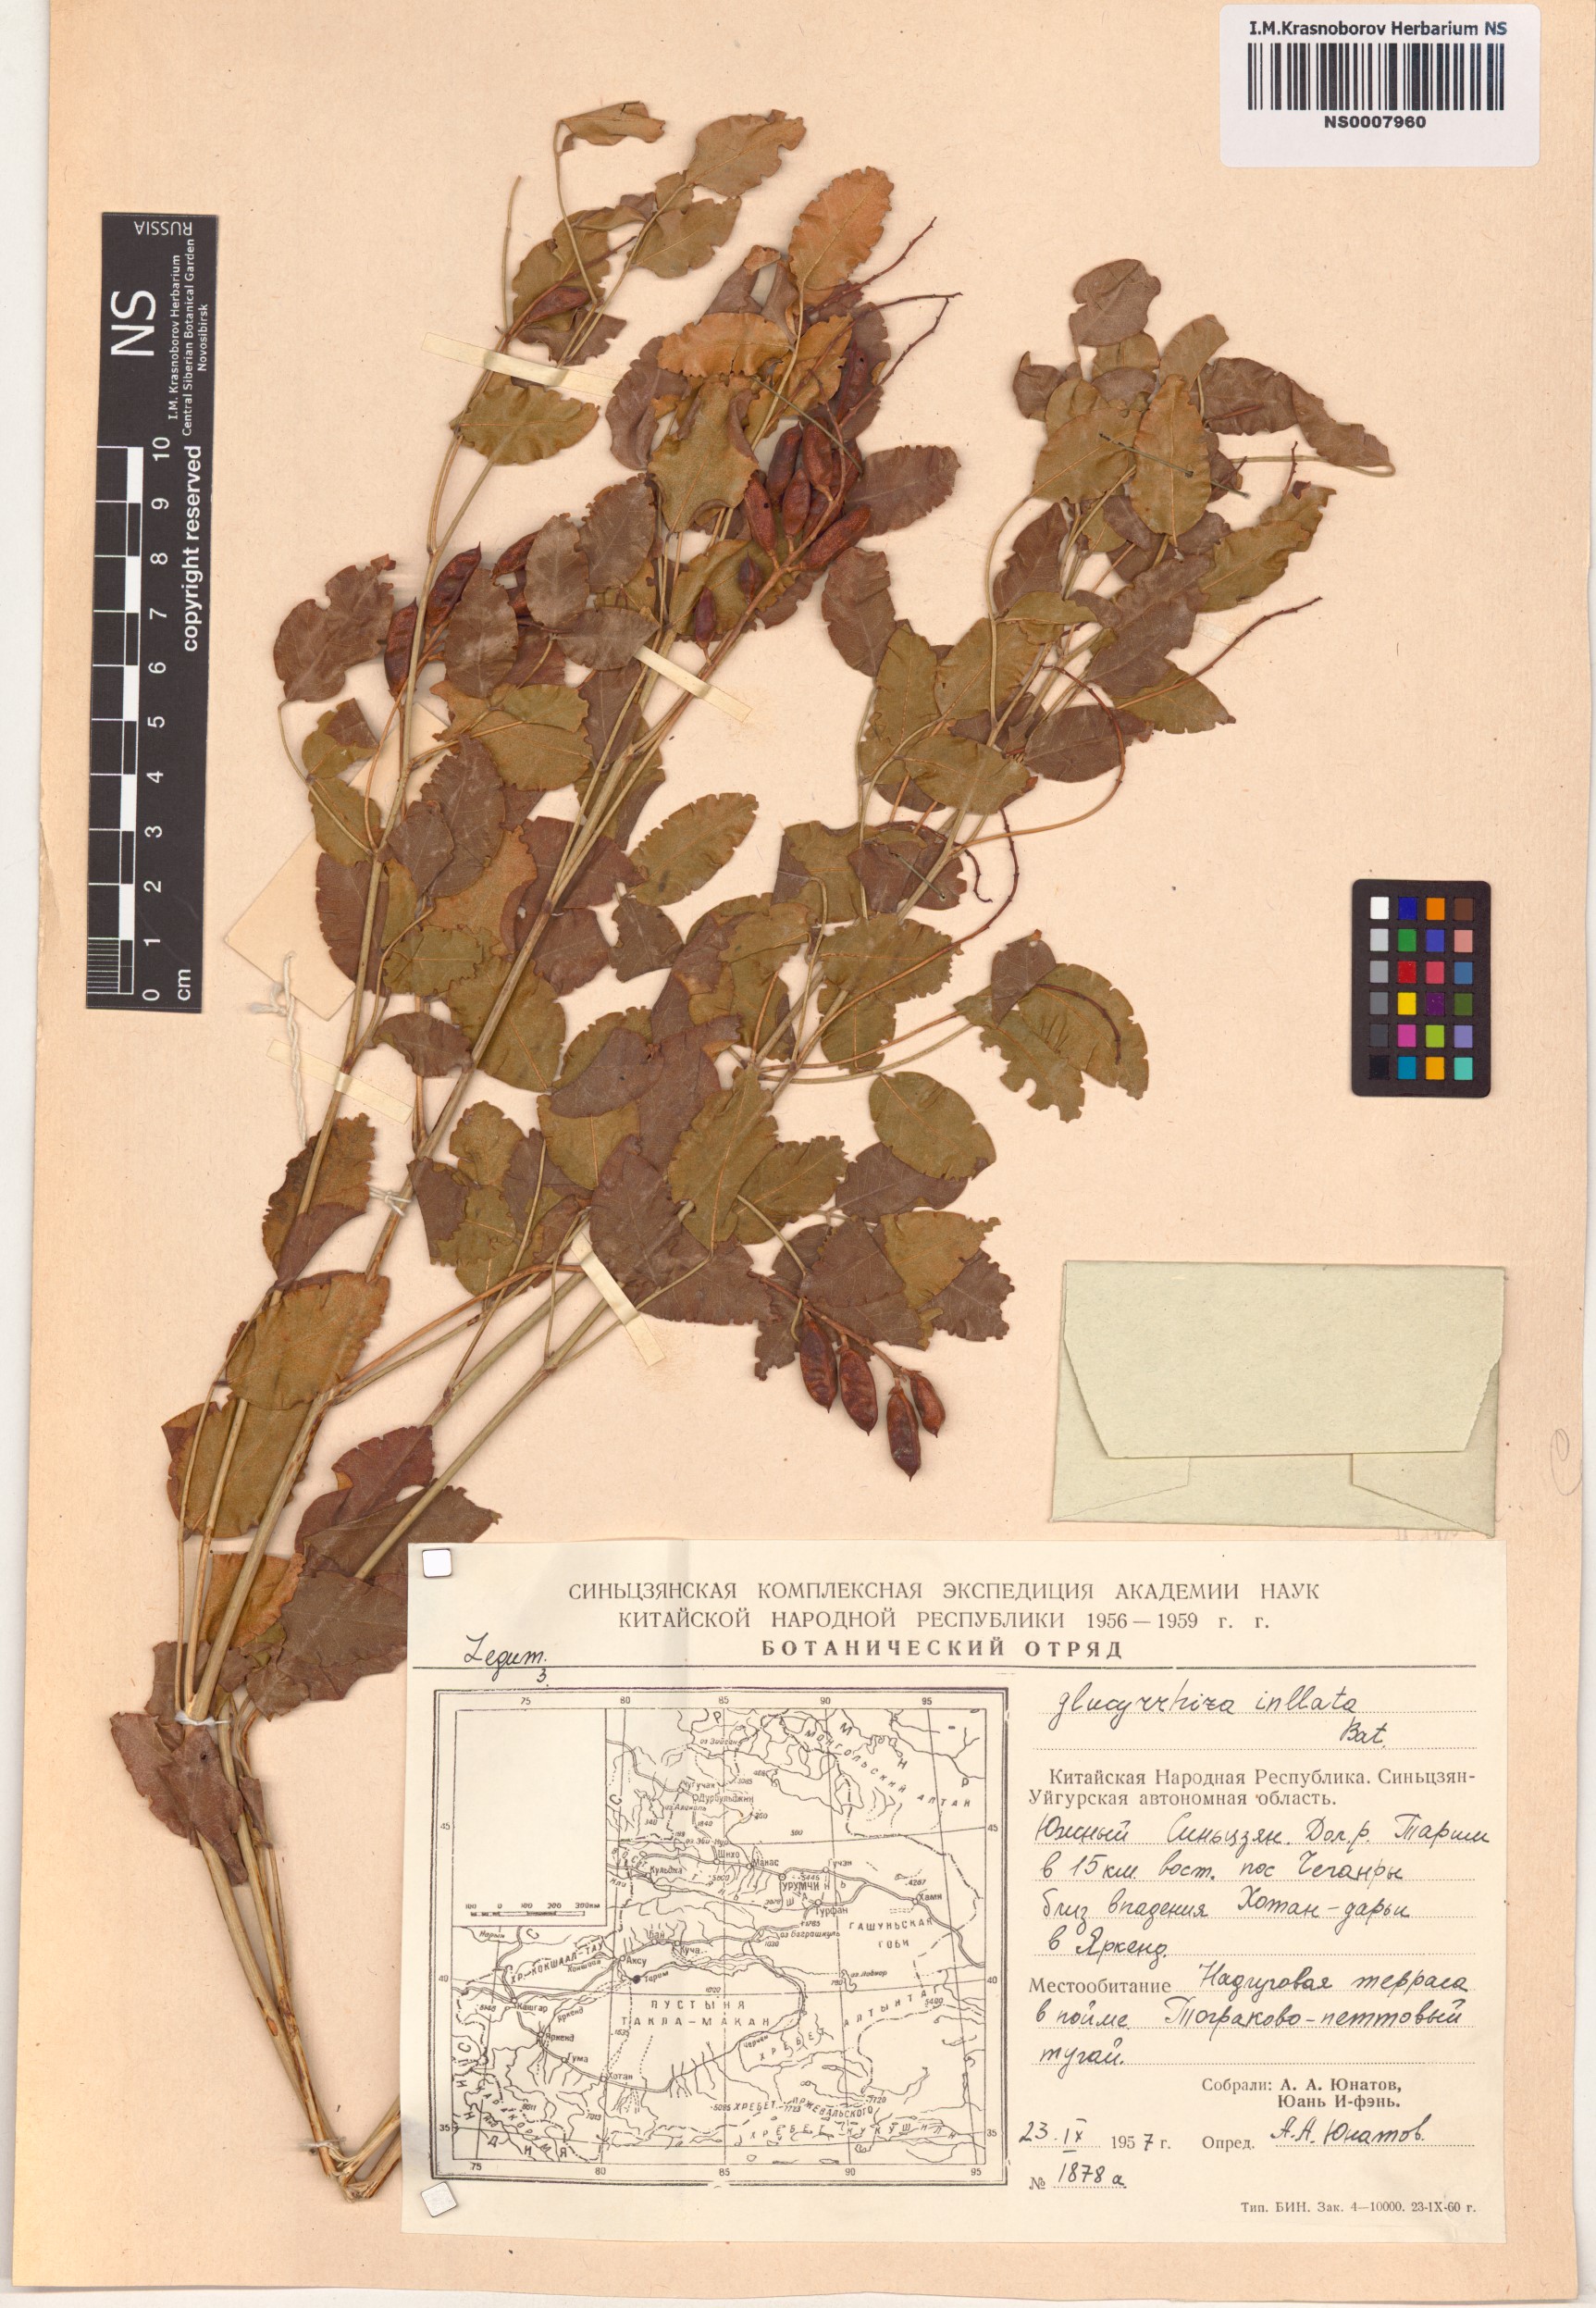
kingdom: Plantae
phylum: Tracheophyta
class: Magnoliopsida
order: Fabales
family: Fabaceae
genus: Glycyrrhiza
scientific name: Glycyrrhiza inflata
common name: Chinese licorice
